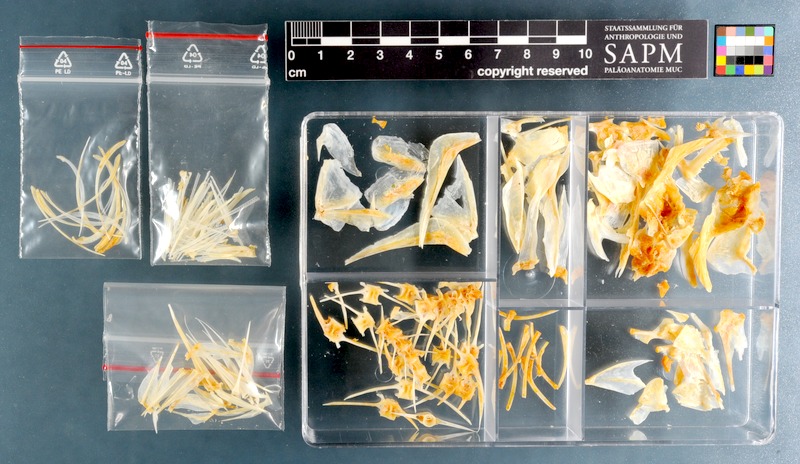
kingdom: Animalia
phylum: Chordata
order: Perciformes
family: Sparidae
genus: Cheimerius
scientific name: Cheimerius nufar
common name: Soldier
